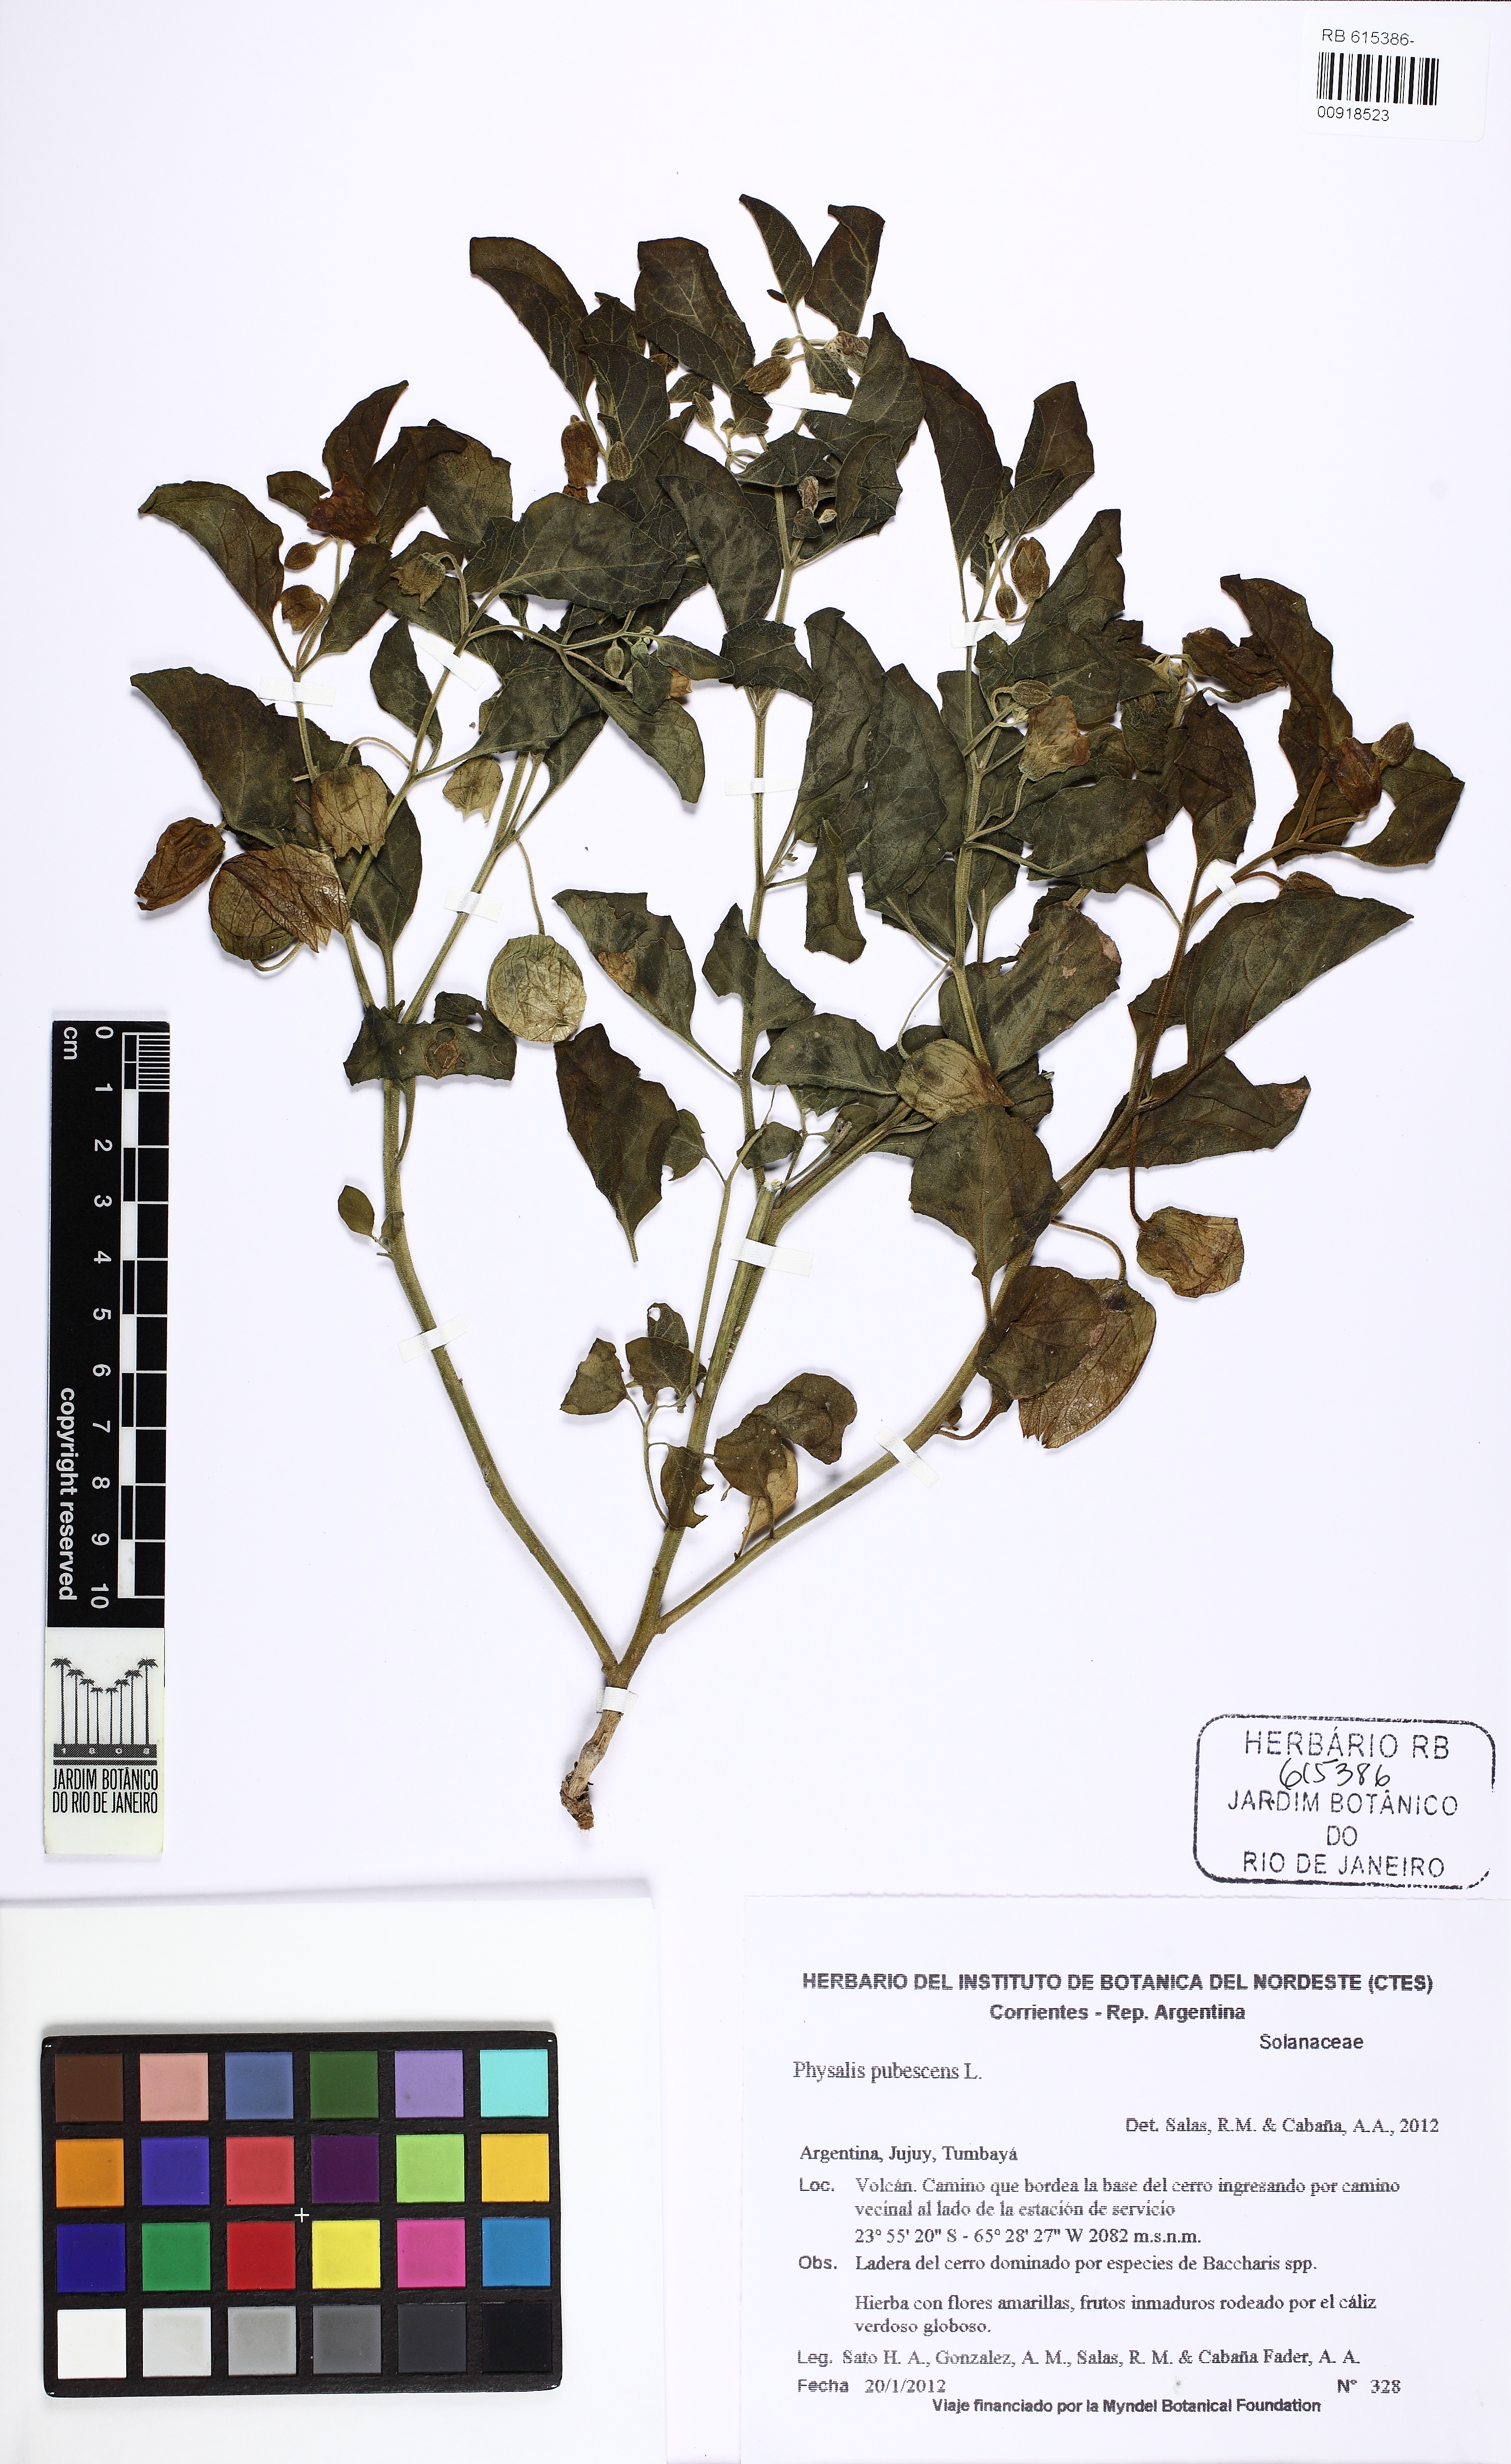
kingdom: Plantae
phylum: Tracheophyta
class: Magnoliopsida
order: Solanales
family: Solanaceae
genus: Physalis
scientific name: Physalis pubescens
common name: Downy ground-cherry
